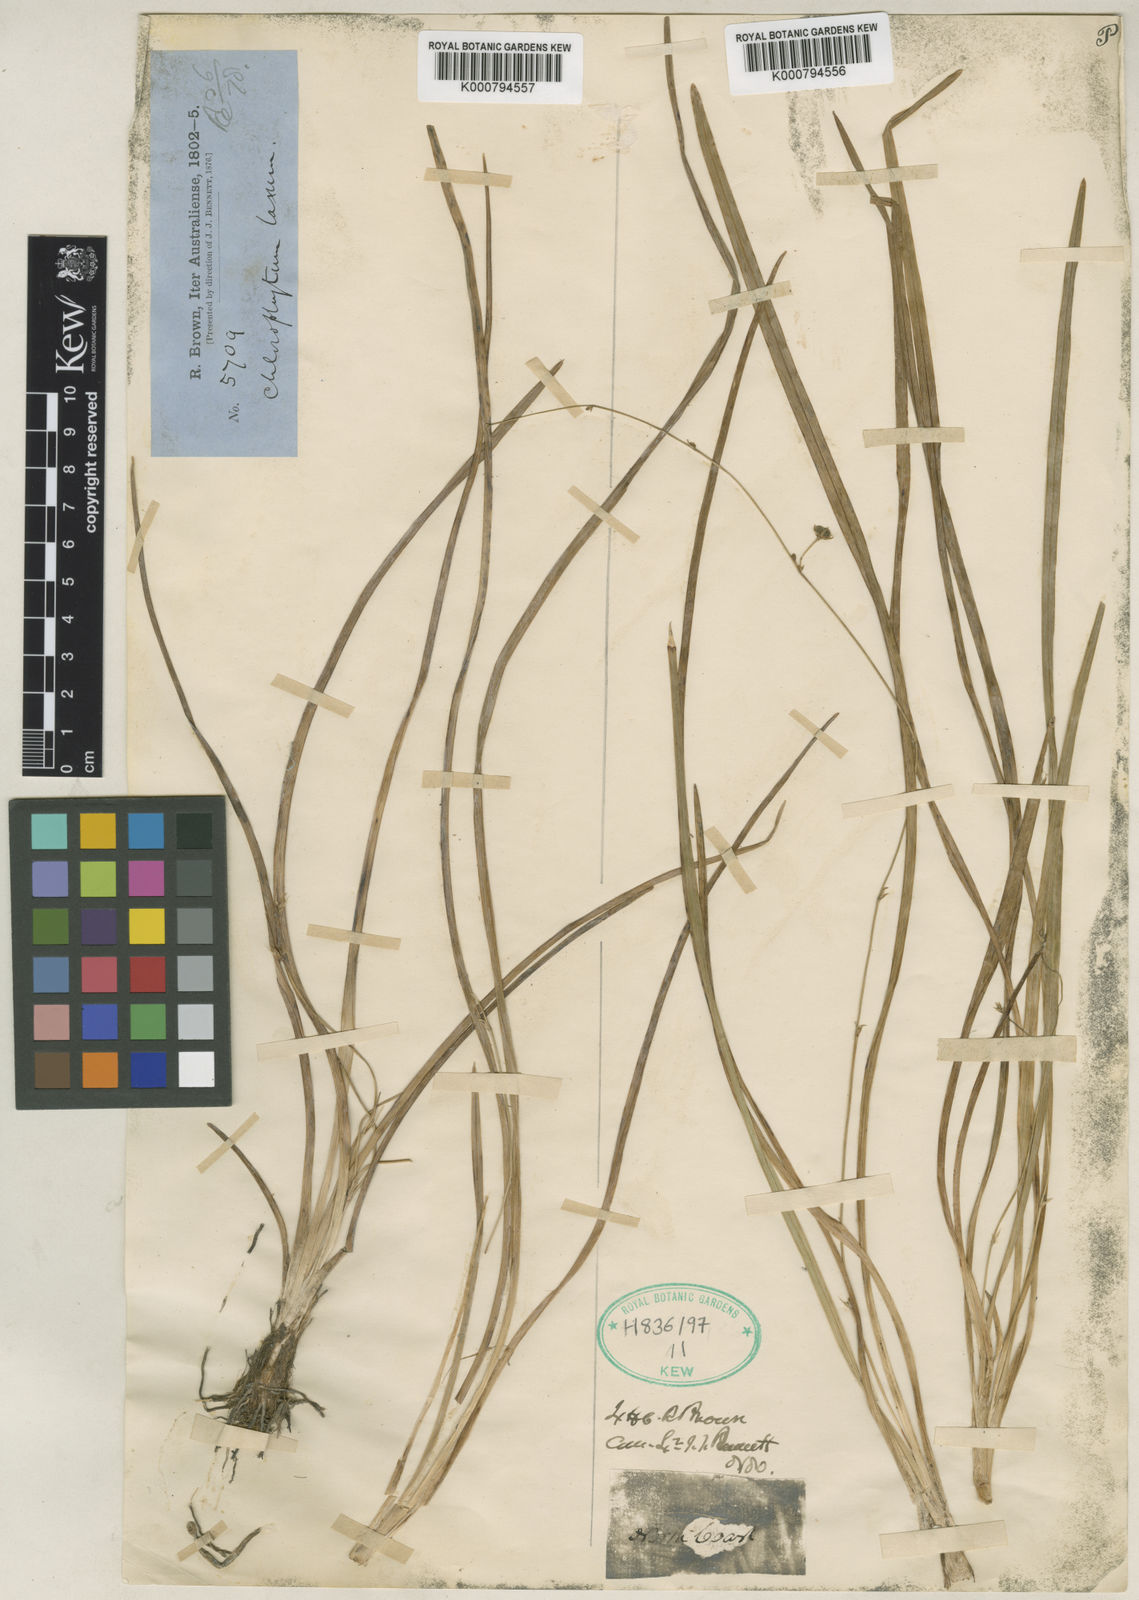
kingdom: Plantae
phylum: Tracheophyta
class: Liliopsida
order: Asparagales
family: Asparagaceae
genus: Chlorophytum
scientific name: Chlorophytum laxum
